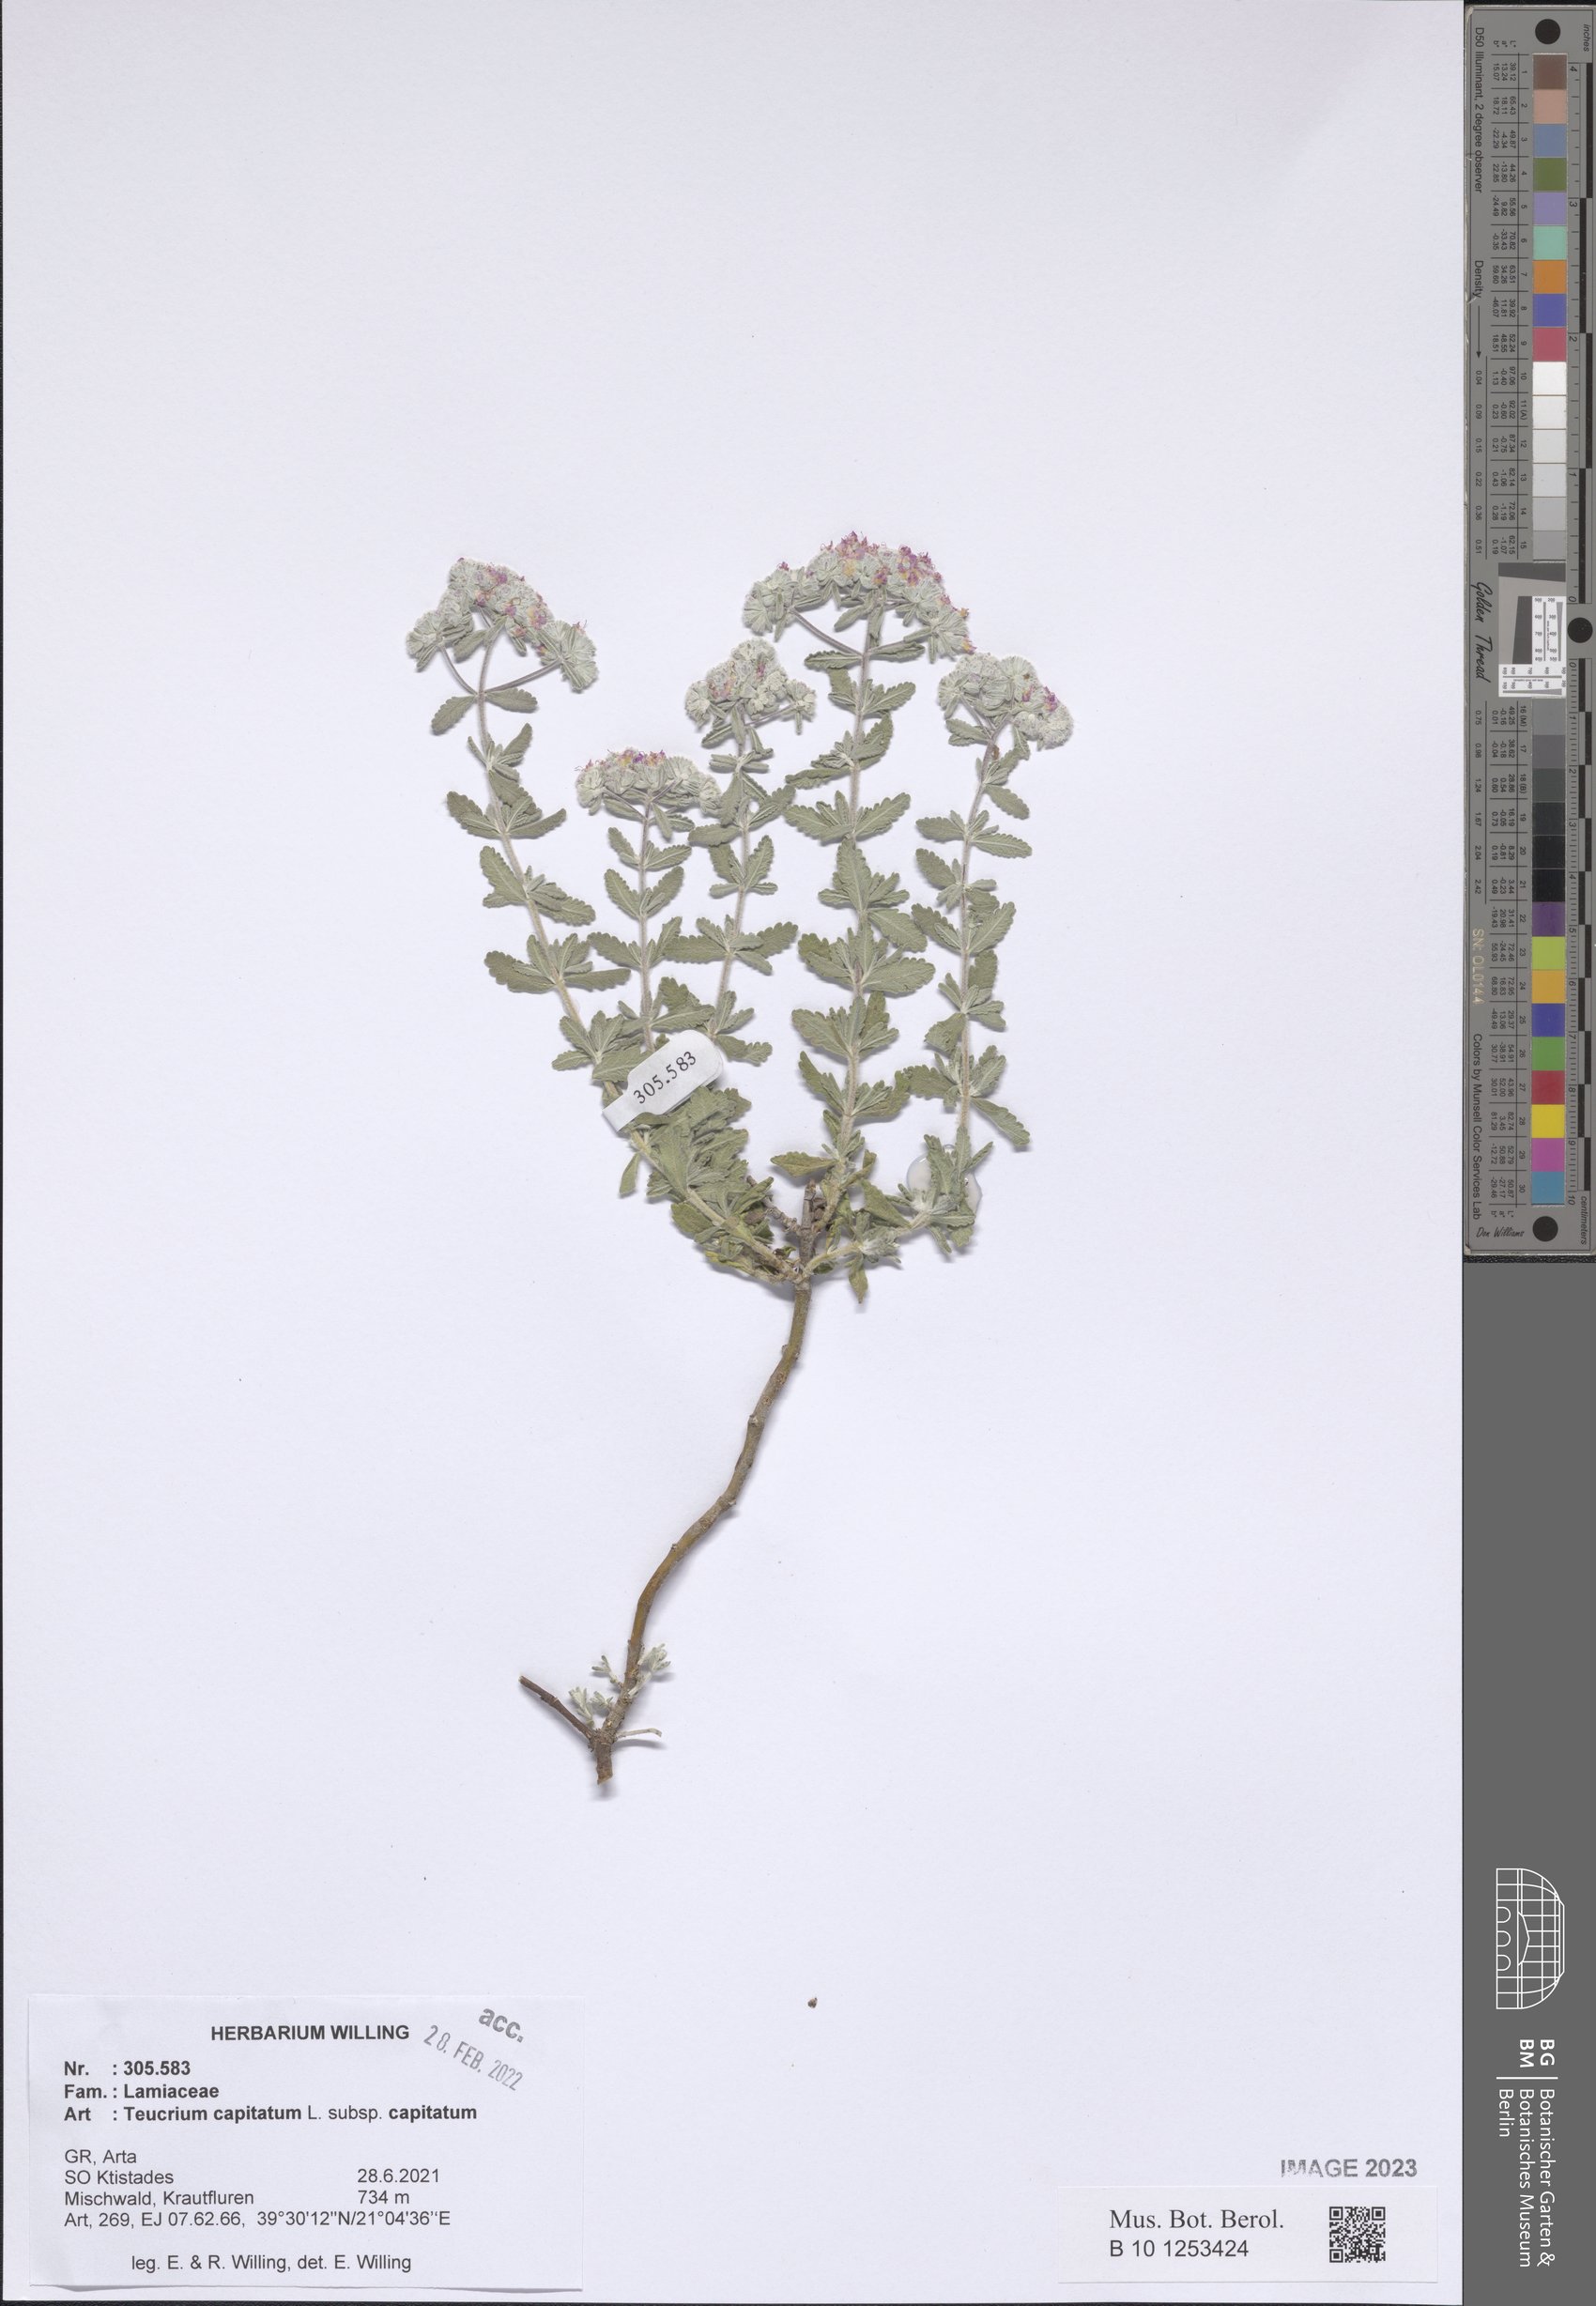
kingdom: Plantae
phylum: Tracheophyta
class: Magnoliopsida
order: Lamiales
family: Lamiaceae
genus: Teucrium
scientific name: Teucrium capitatum
